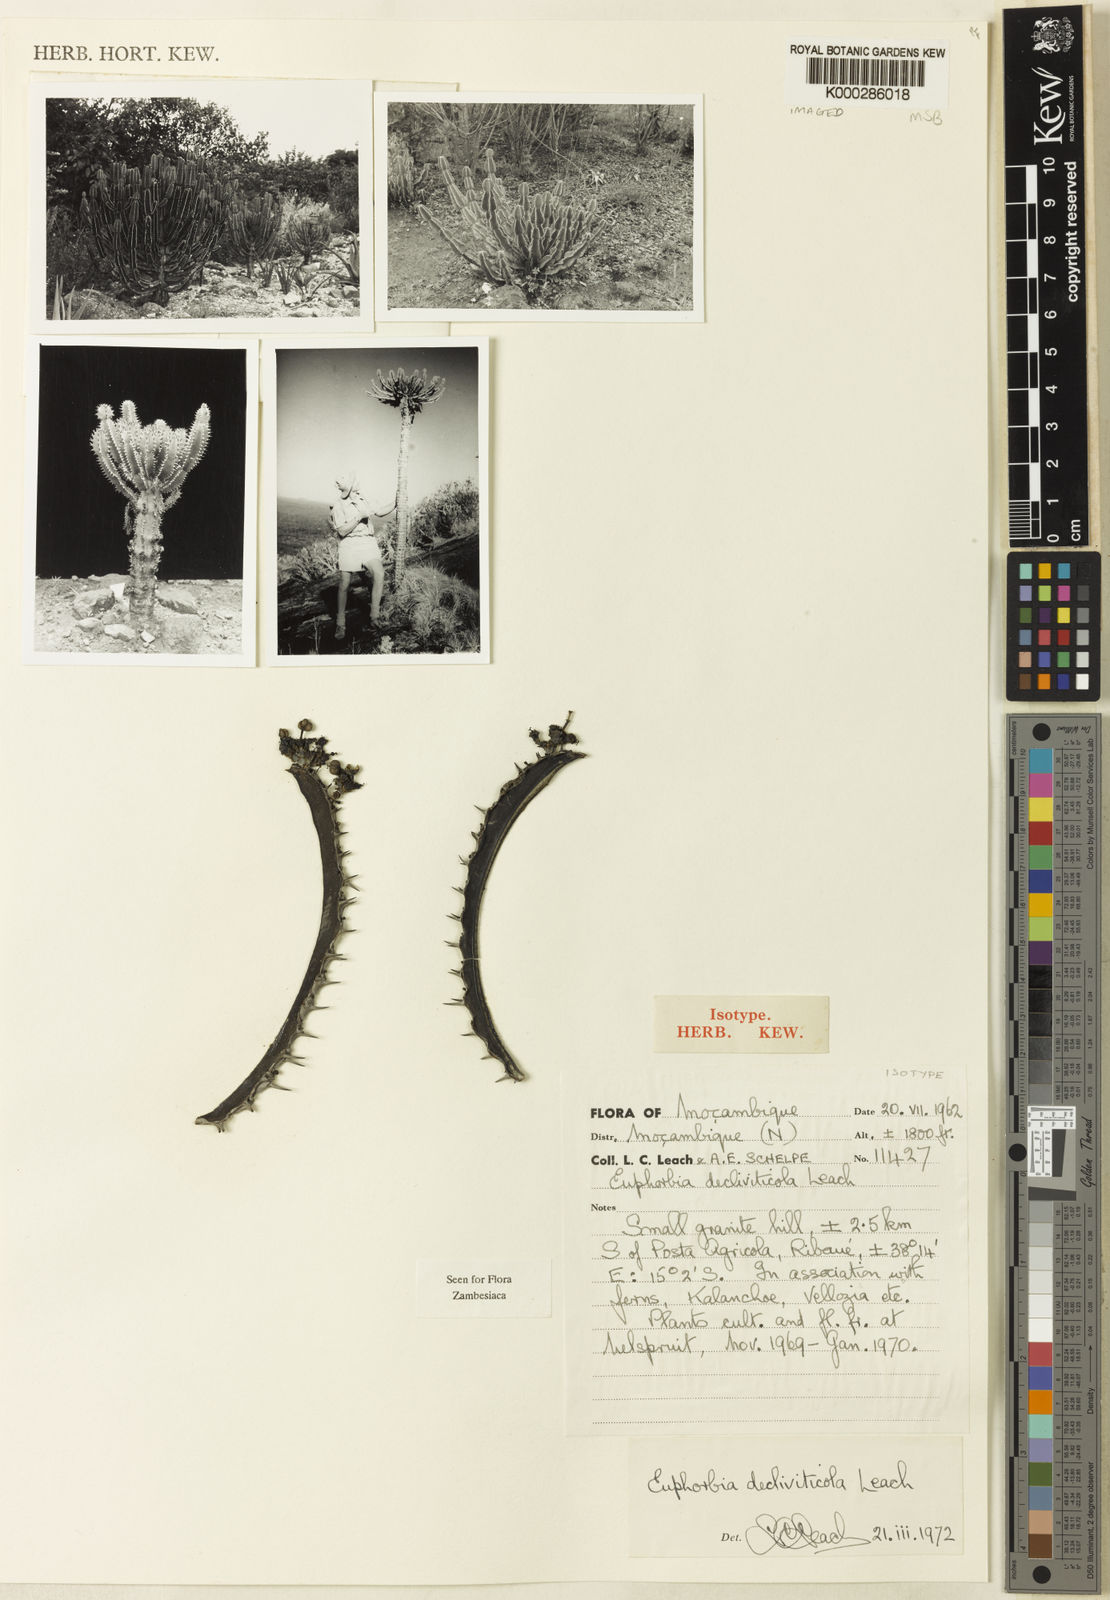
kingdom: Plantae
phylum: Tracheophyta
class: Magnoliopsida
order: Malpighiales
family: Euphorbiaceae
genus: Euphorbia
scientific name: Euphorbia decliviticola
